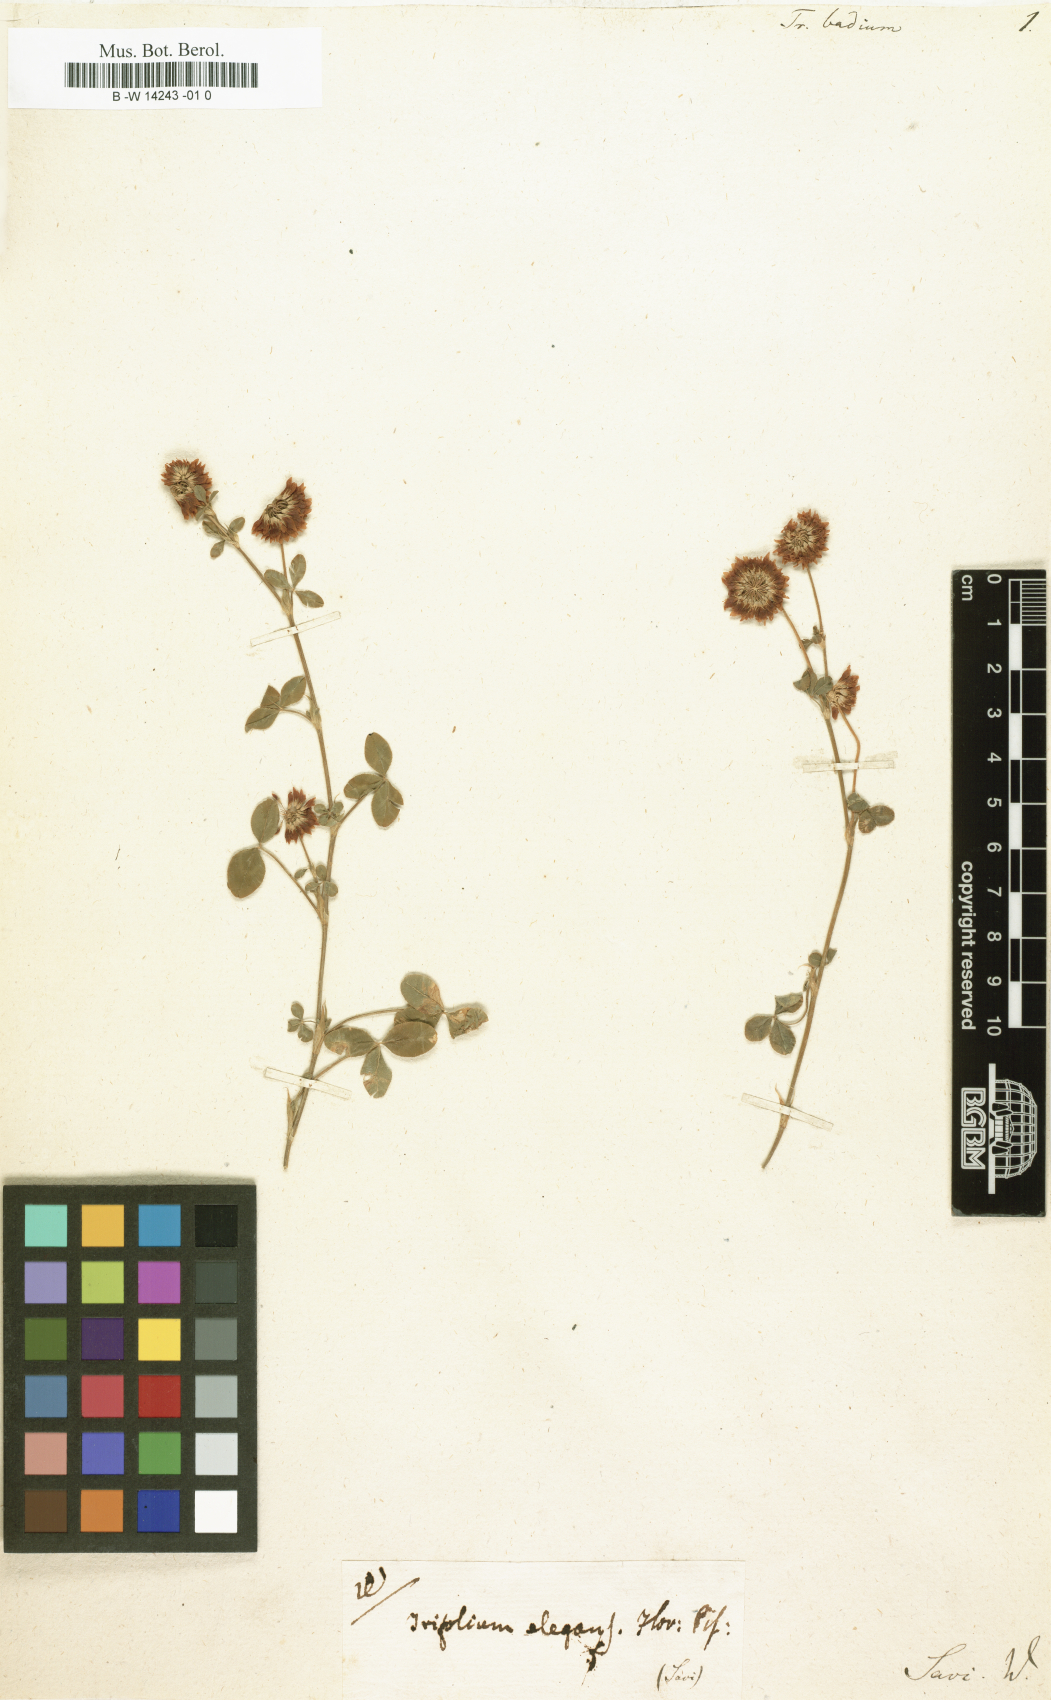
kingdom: Plantae
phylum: Tracheophyta
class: Magnoliopsida
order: Fabales
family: Fabaceae
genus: Trifolium
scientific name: Trifolium badium
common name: Brown clover
